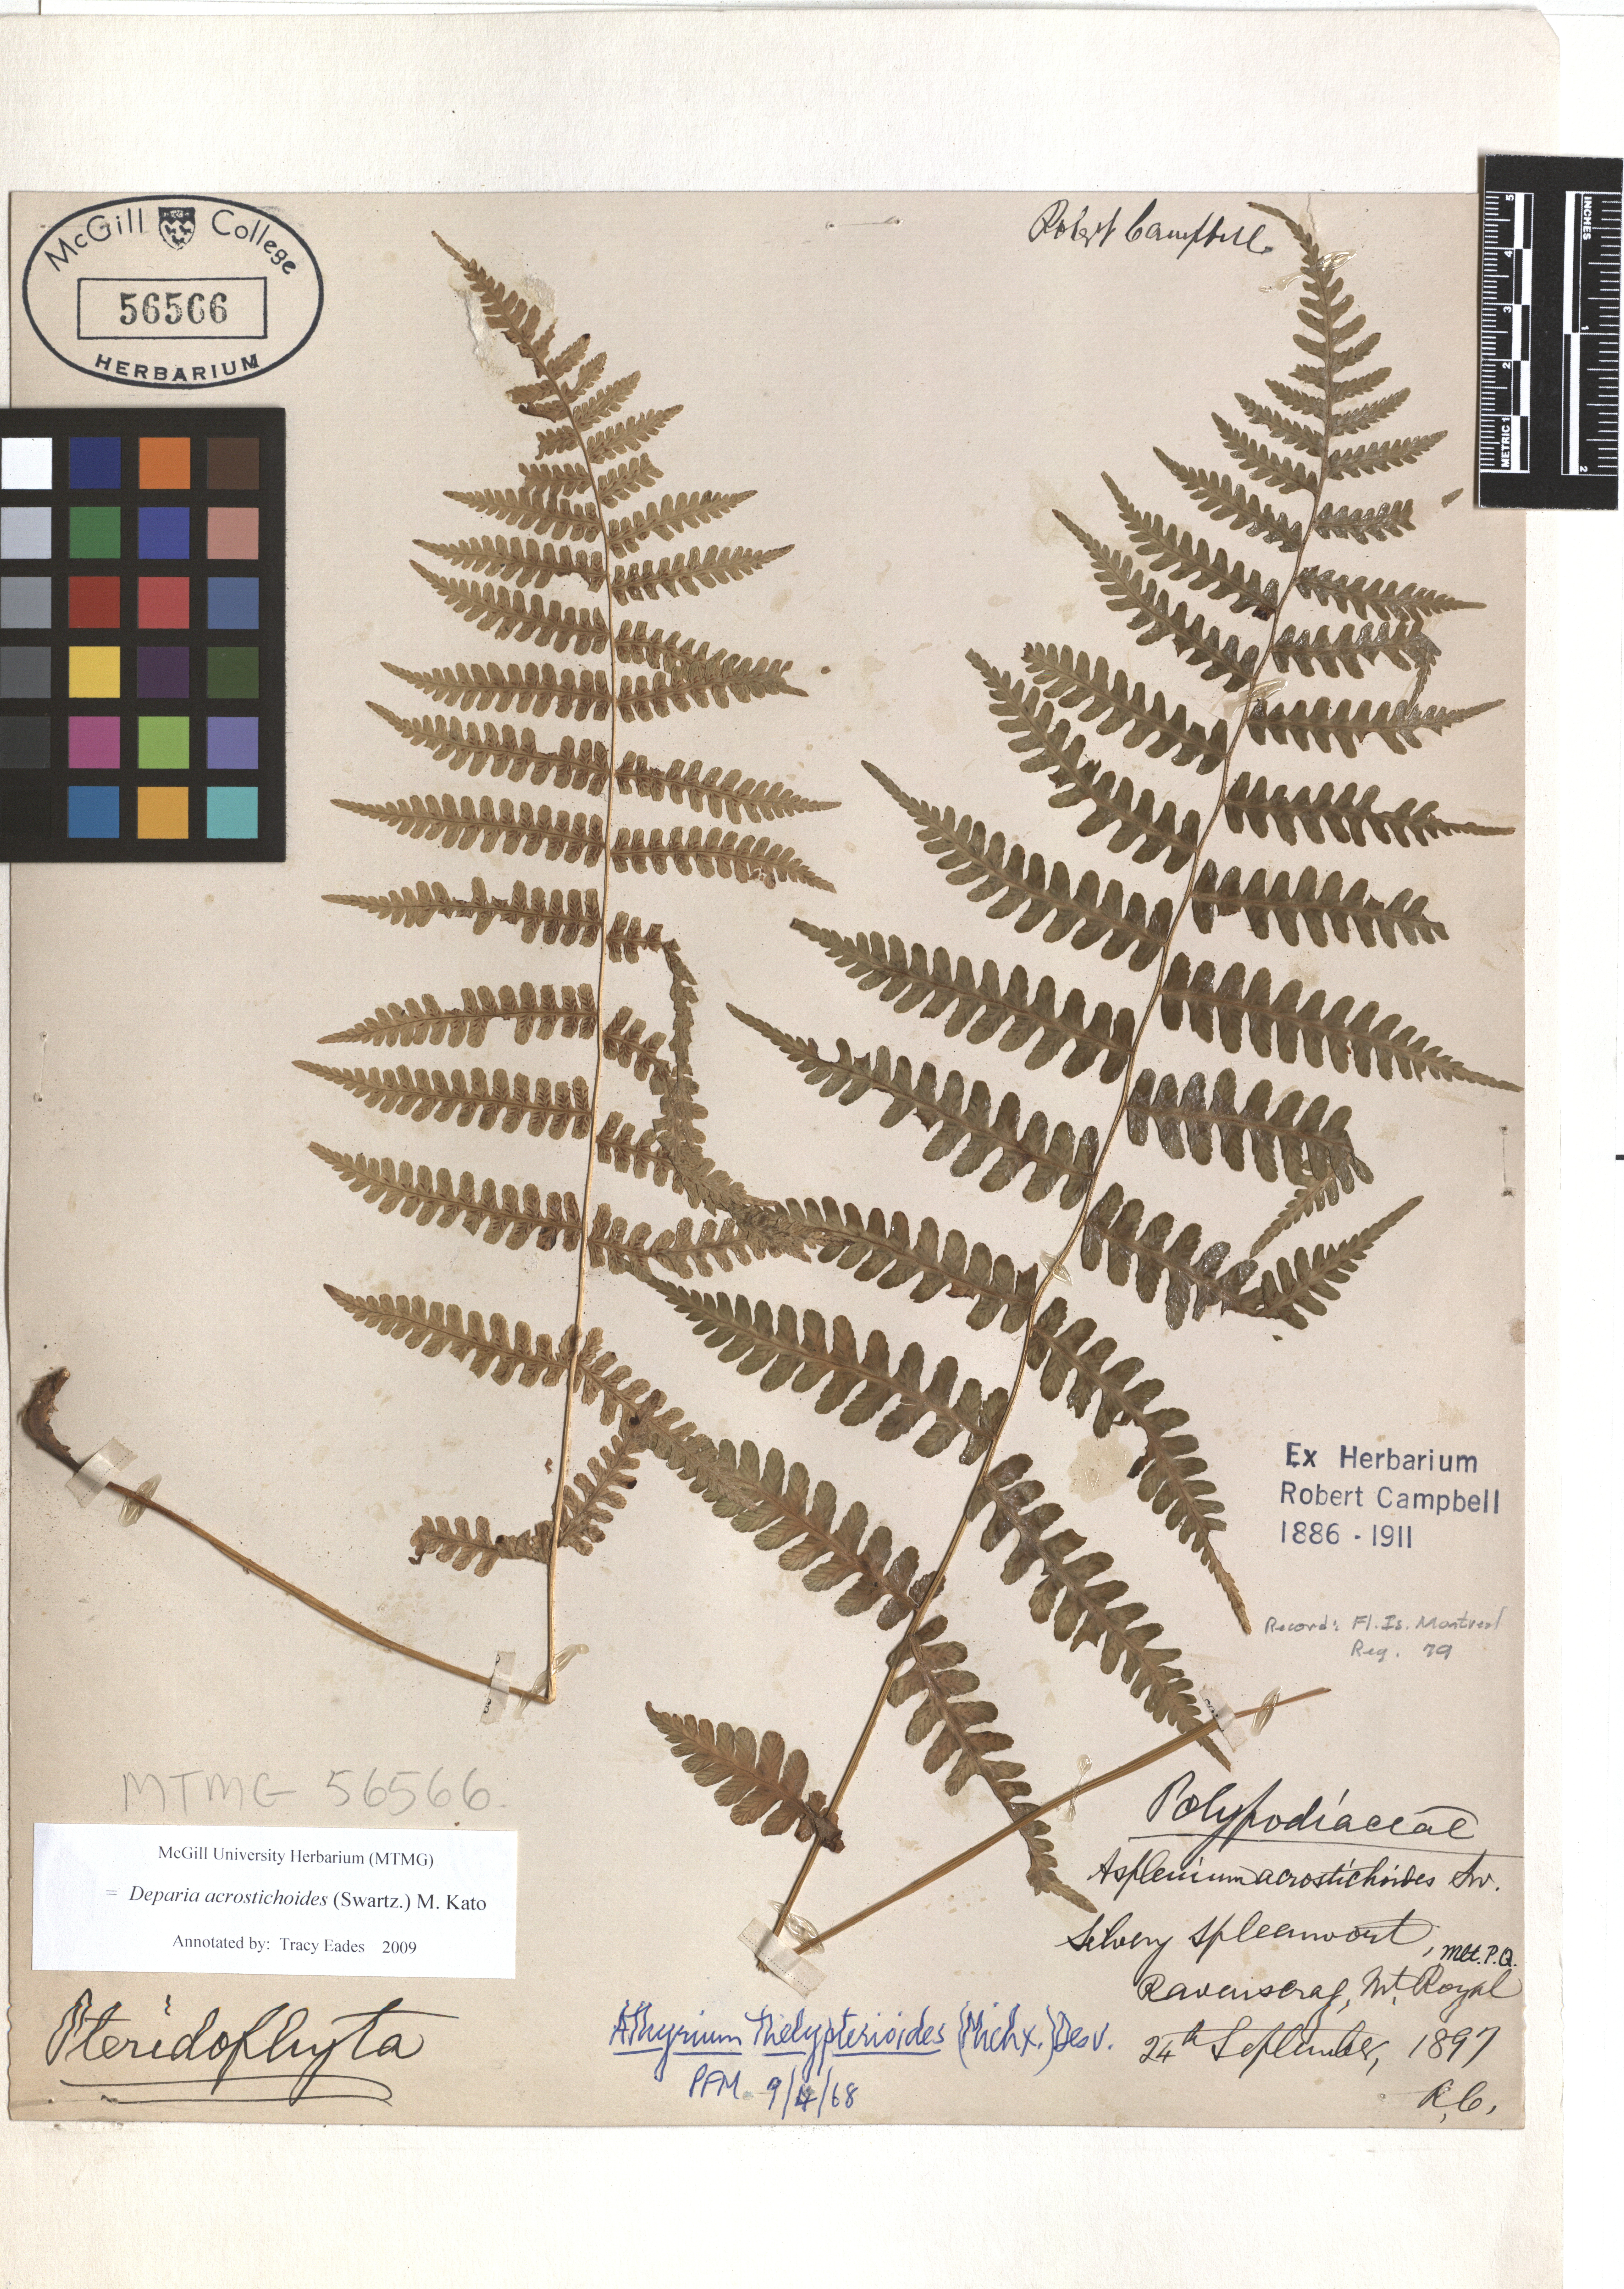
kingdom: Plantae
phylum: Tracheophyta
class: Polypodiopsida
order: Polypodiales
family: Athyriaceae
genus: Deparia
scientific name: Deparia acrostichoides
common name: Silver false spleenwort
